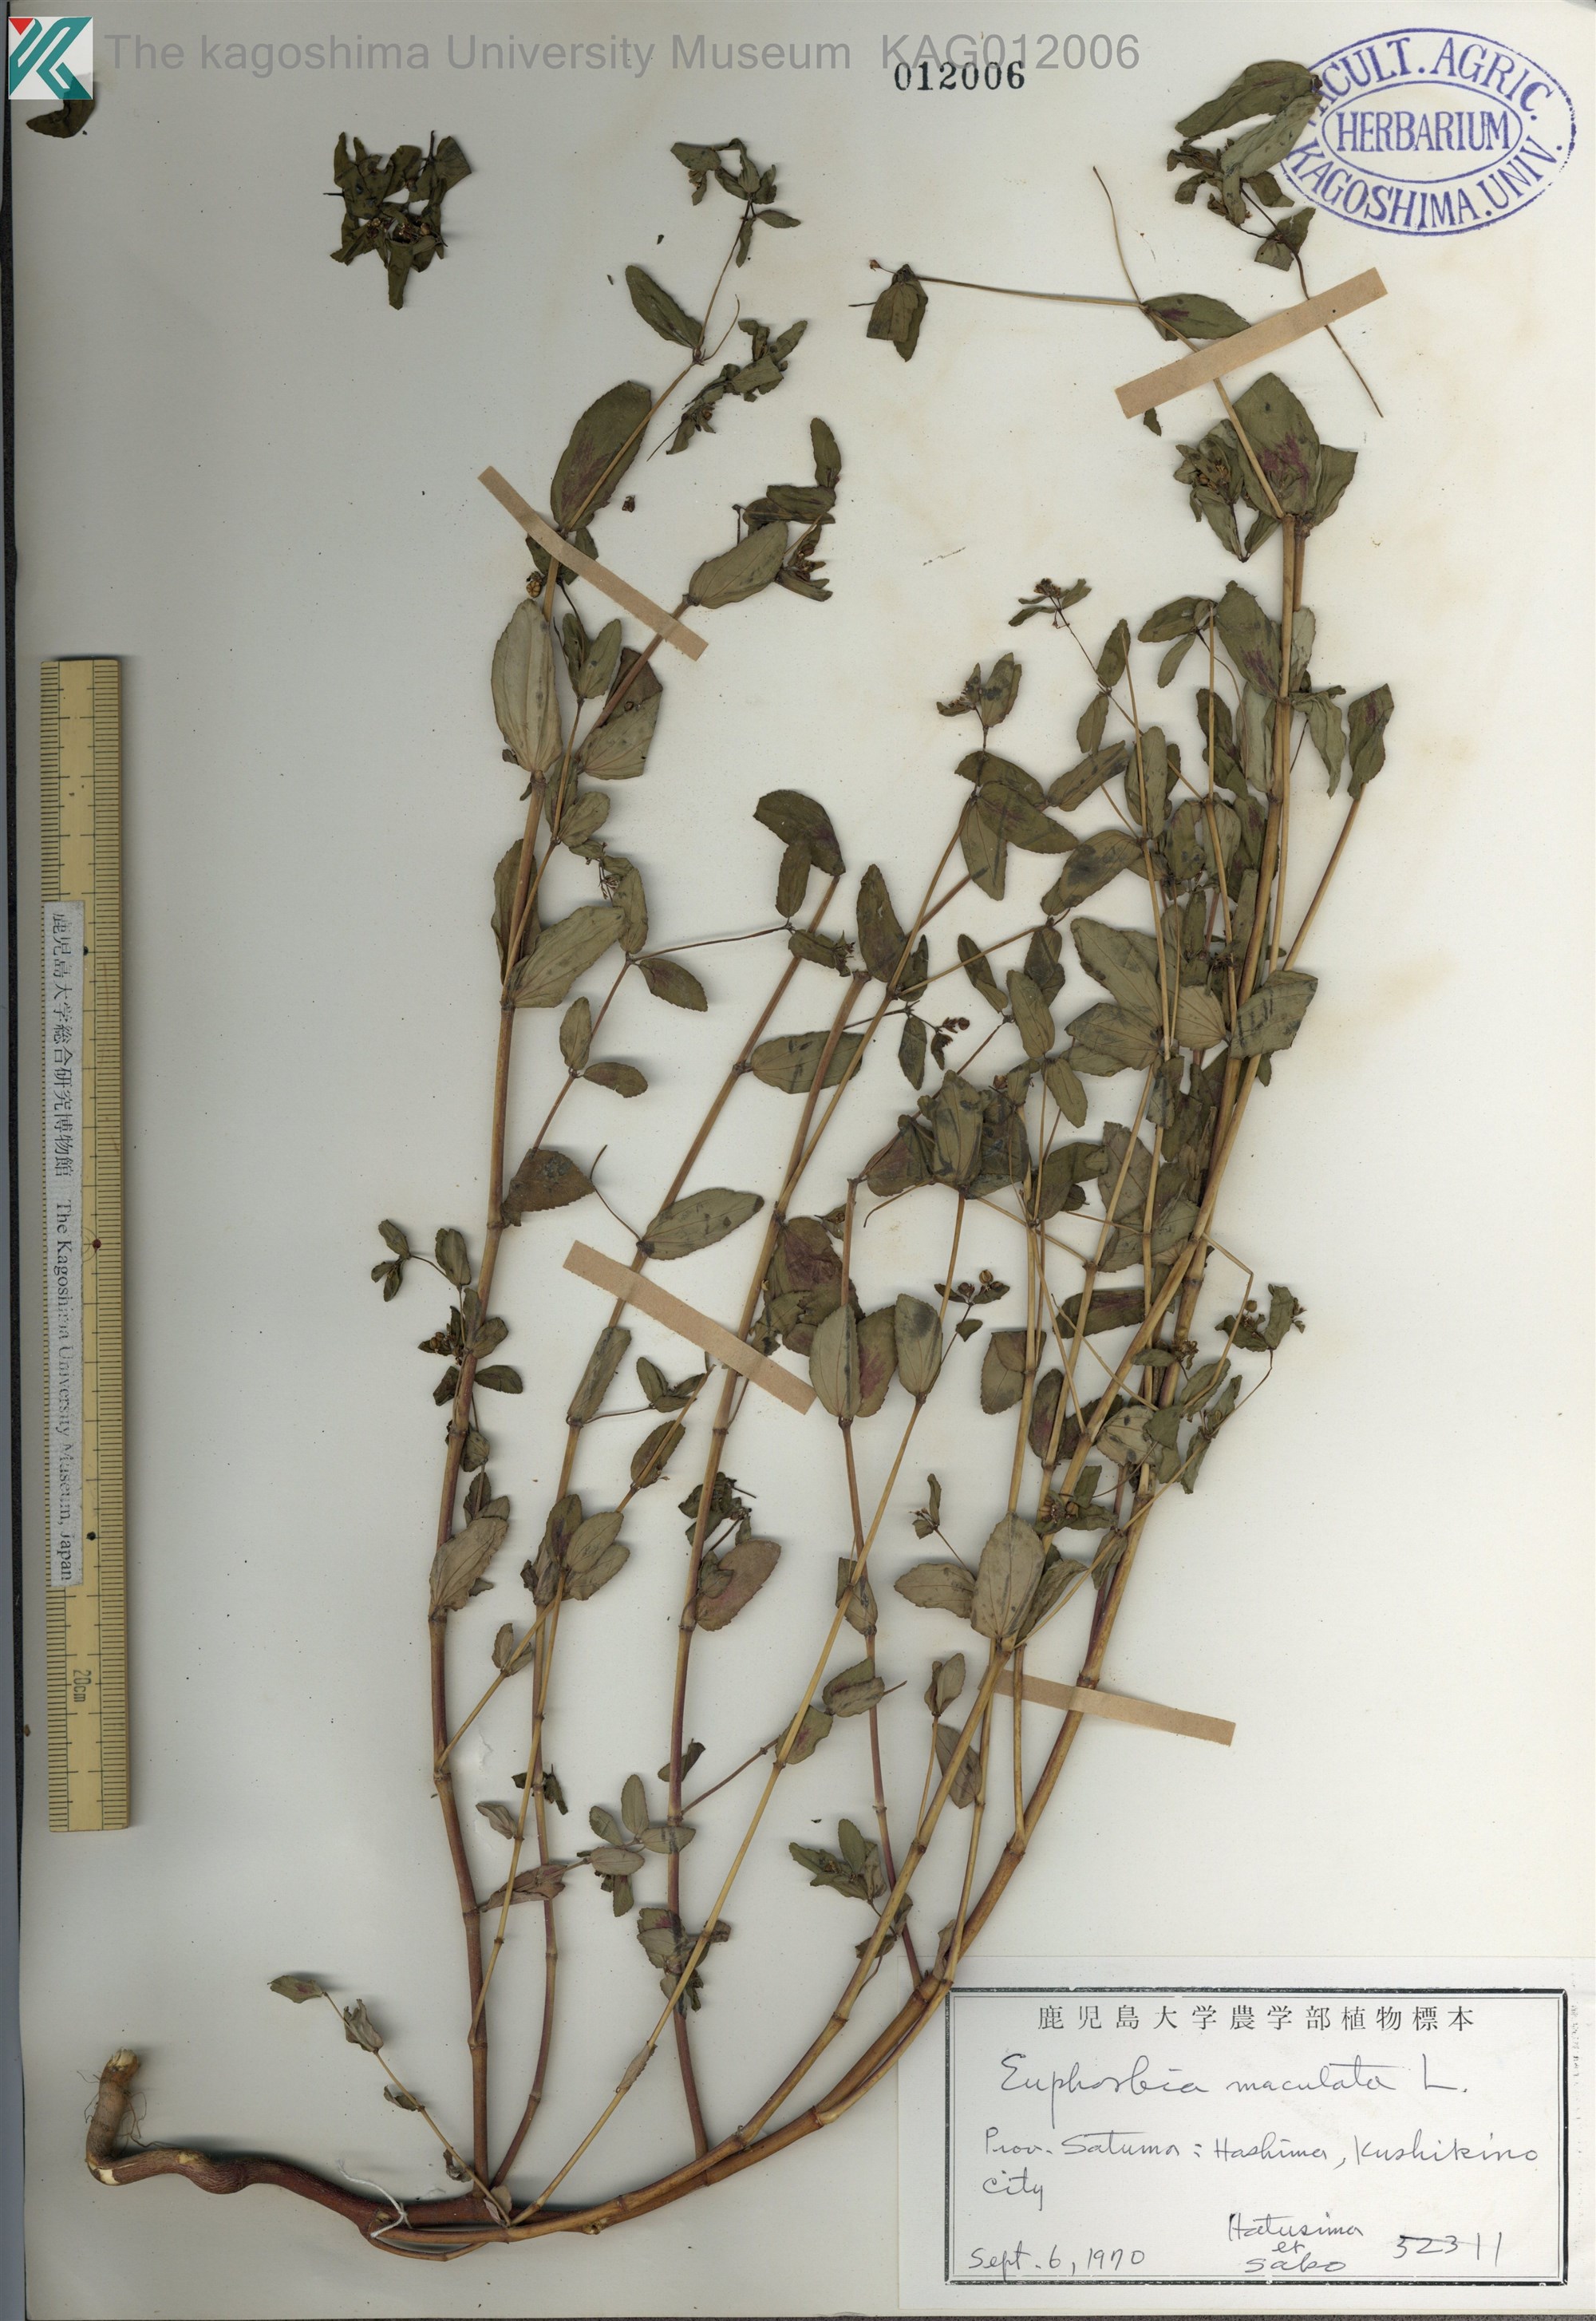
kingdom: Plantae
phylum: Tracheophyta
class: Magnoliopsida
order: Malpighiales
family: Euphorbiaceae
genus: Euphorbia
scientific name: Euphorbia hyssopifolia
